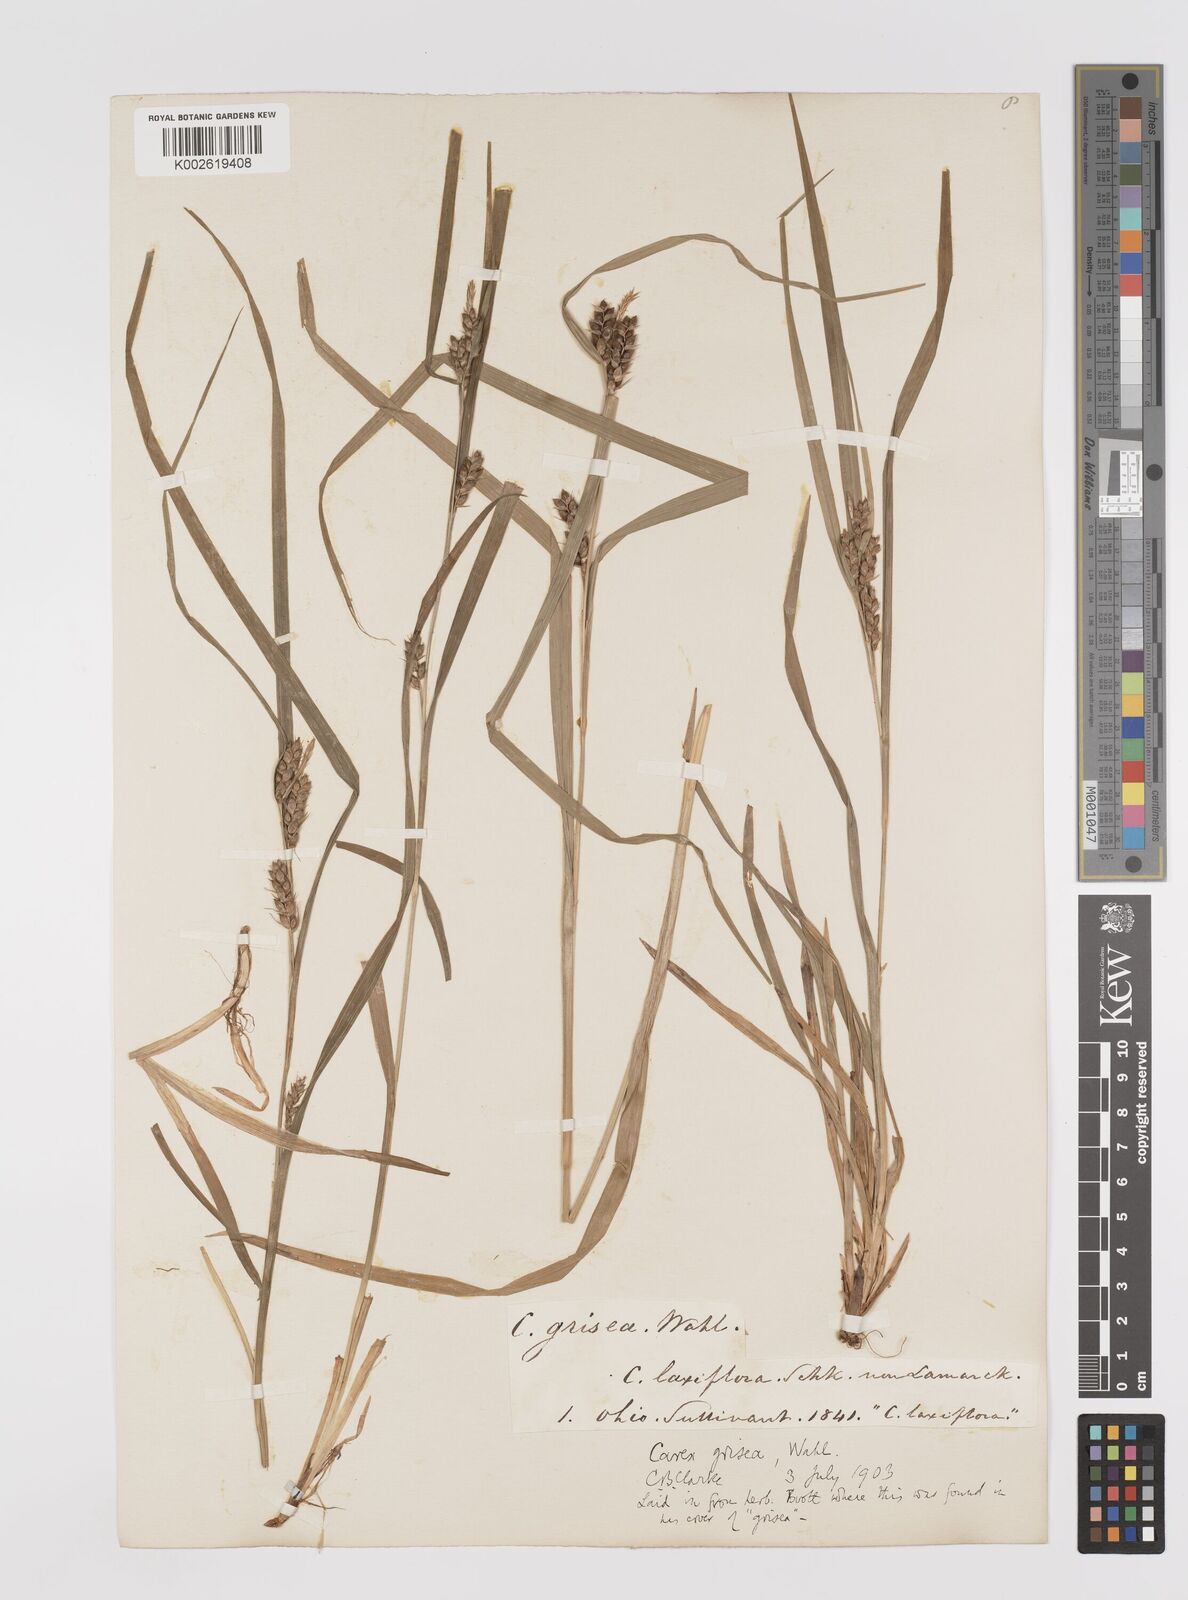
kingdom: Plantae
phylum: Tracheophyta
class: Liliopsida
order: Poales
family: Cyperaceae
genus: Carex
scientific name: Carex grisea
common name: Eastern narrow-leaved sedge
